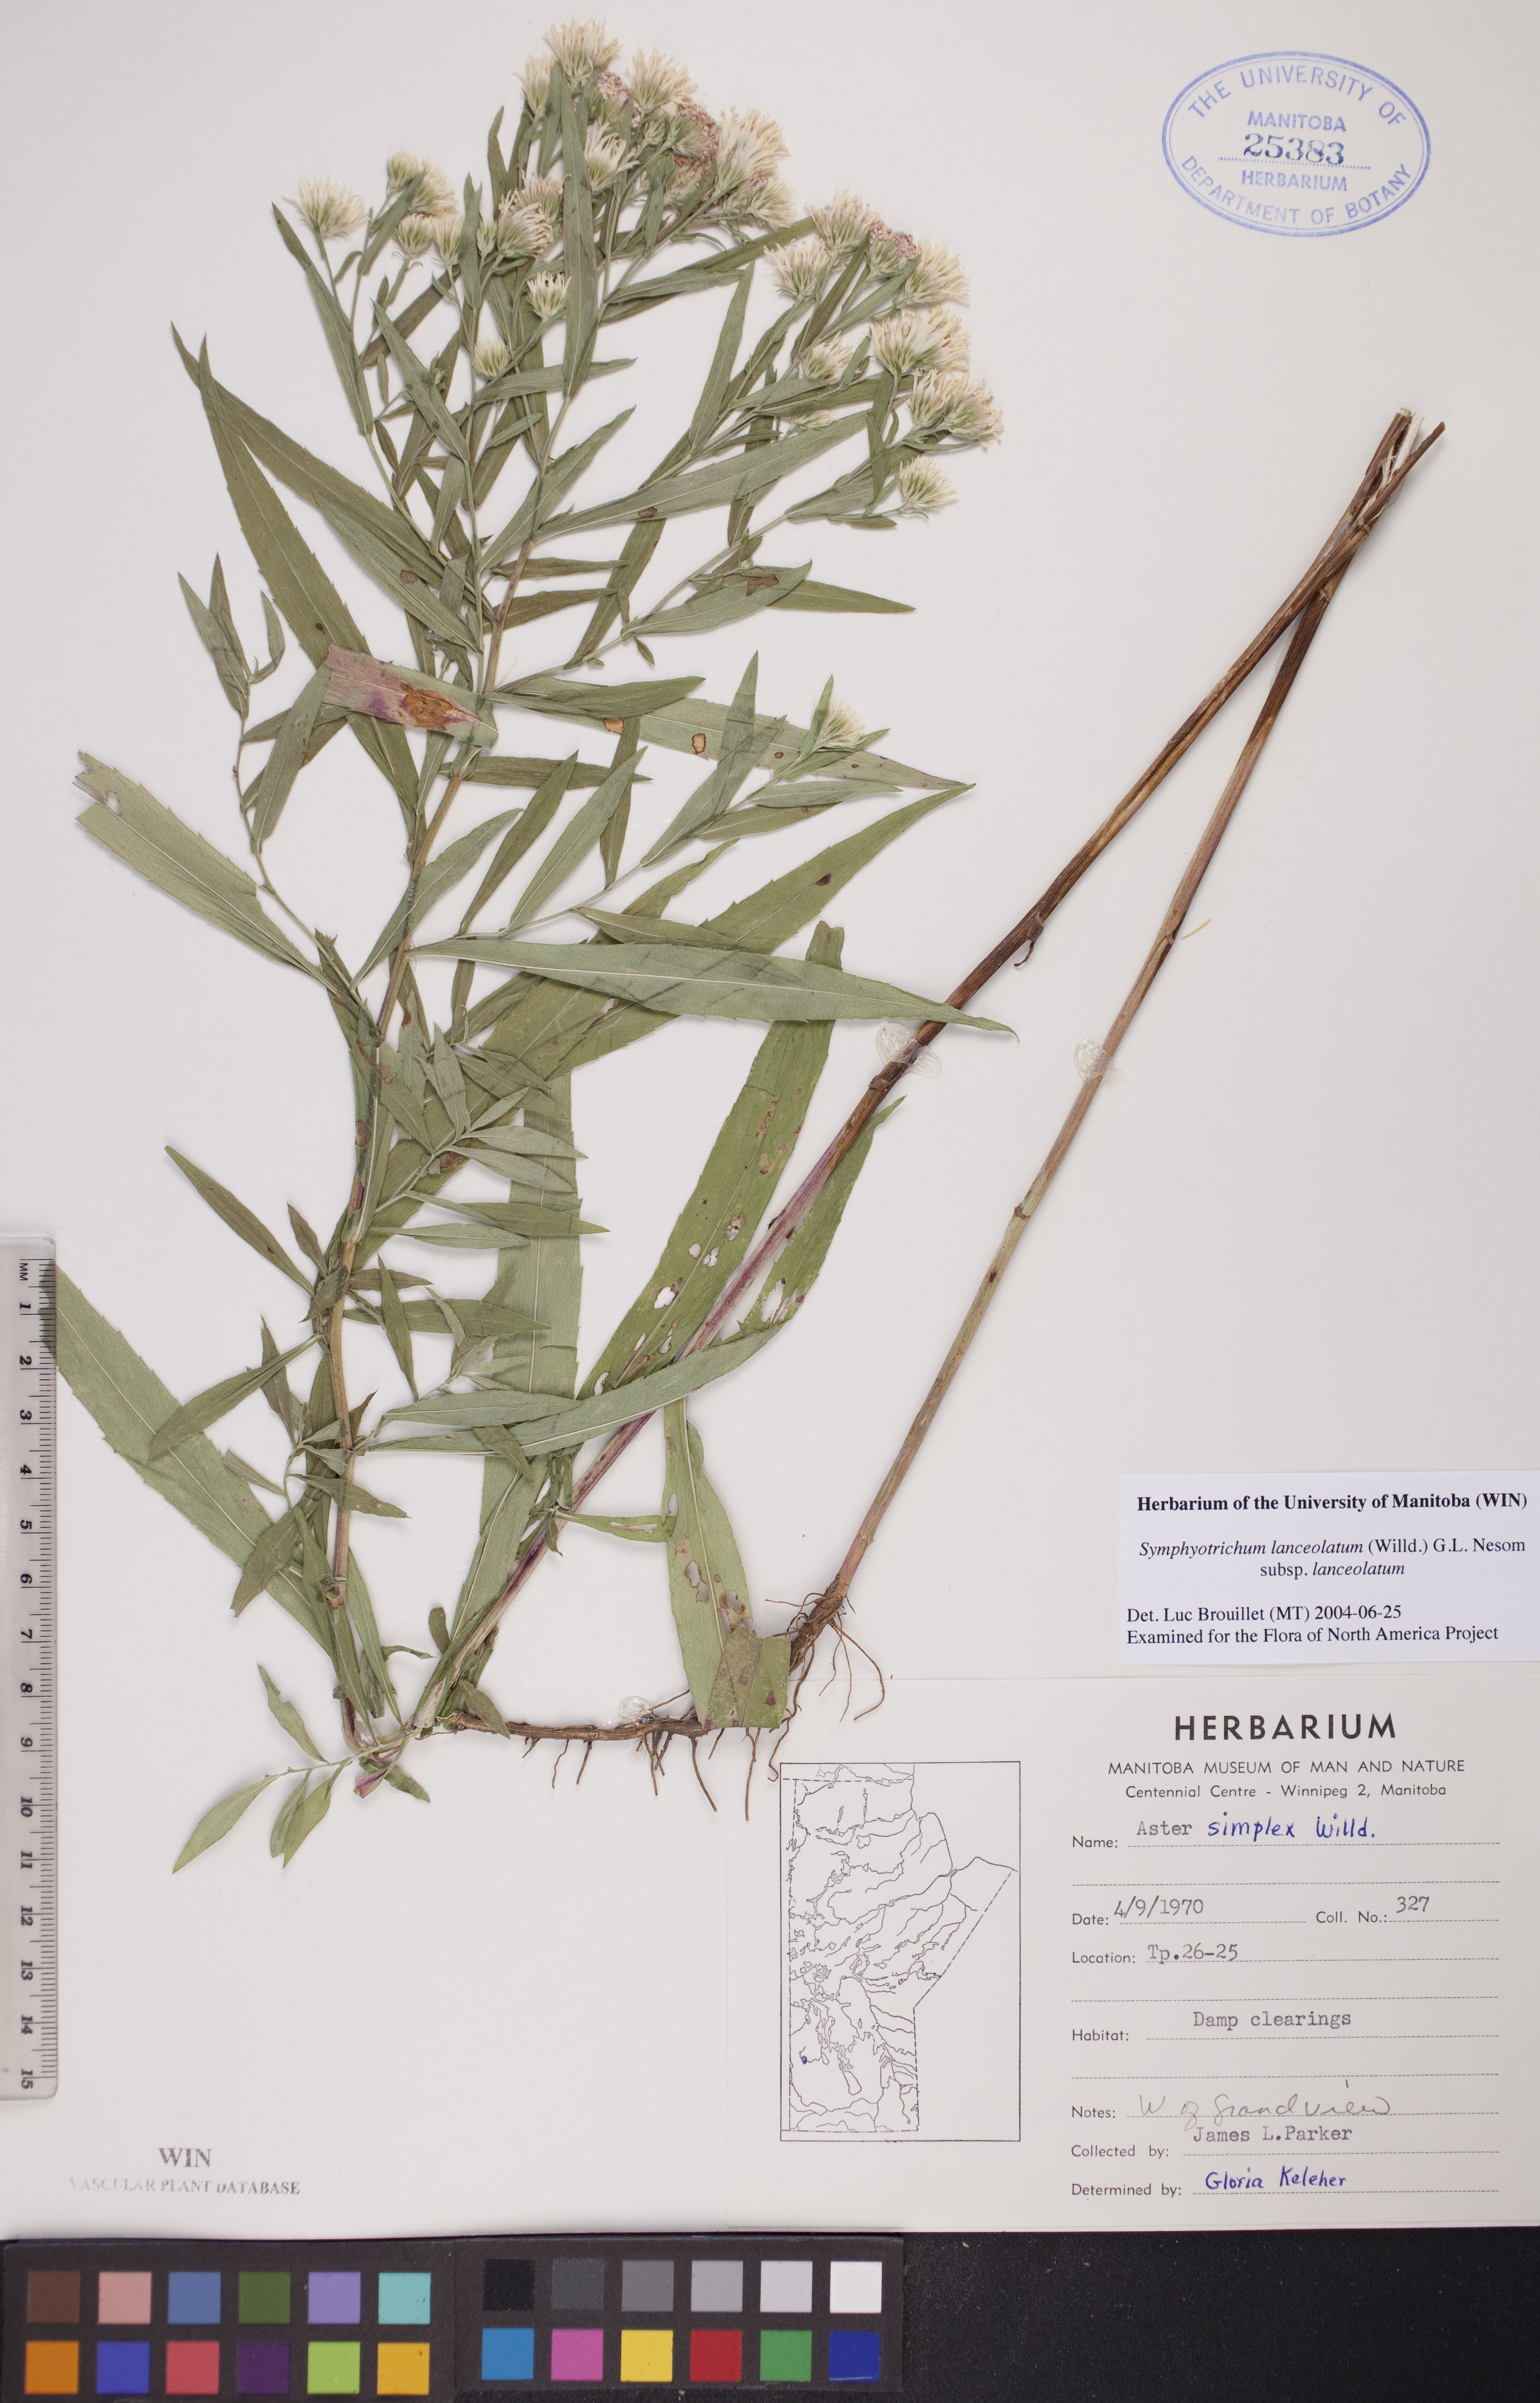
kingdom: Plantae
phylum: Tracheophyta
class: Magnoliopsida
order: Asterales
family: Asteraceae
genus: Symphyotrichum
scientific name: Symphyotrichum lanceolatum
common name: Panicled aster
